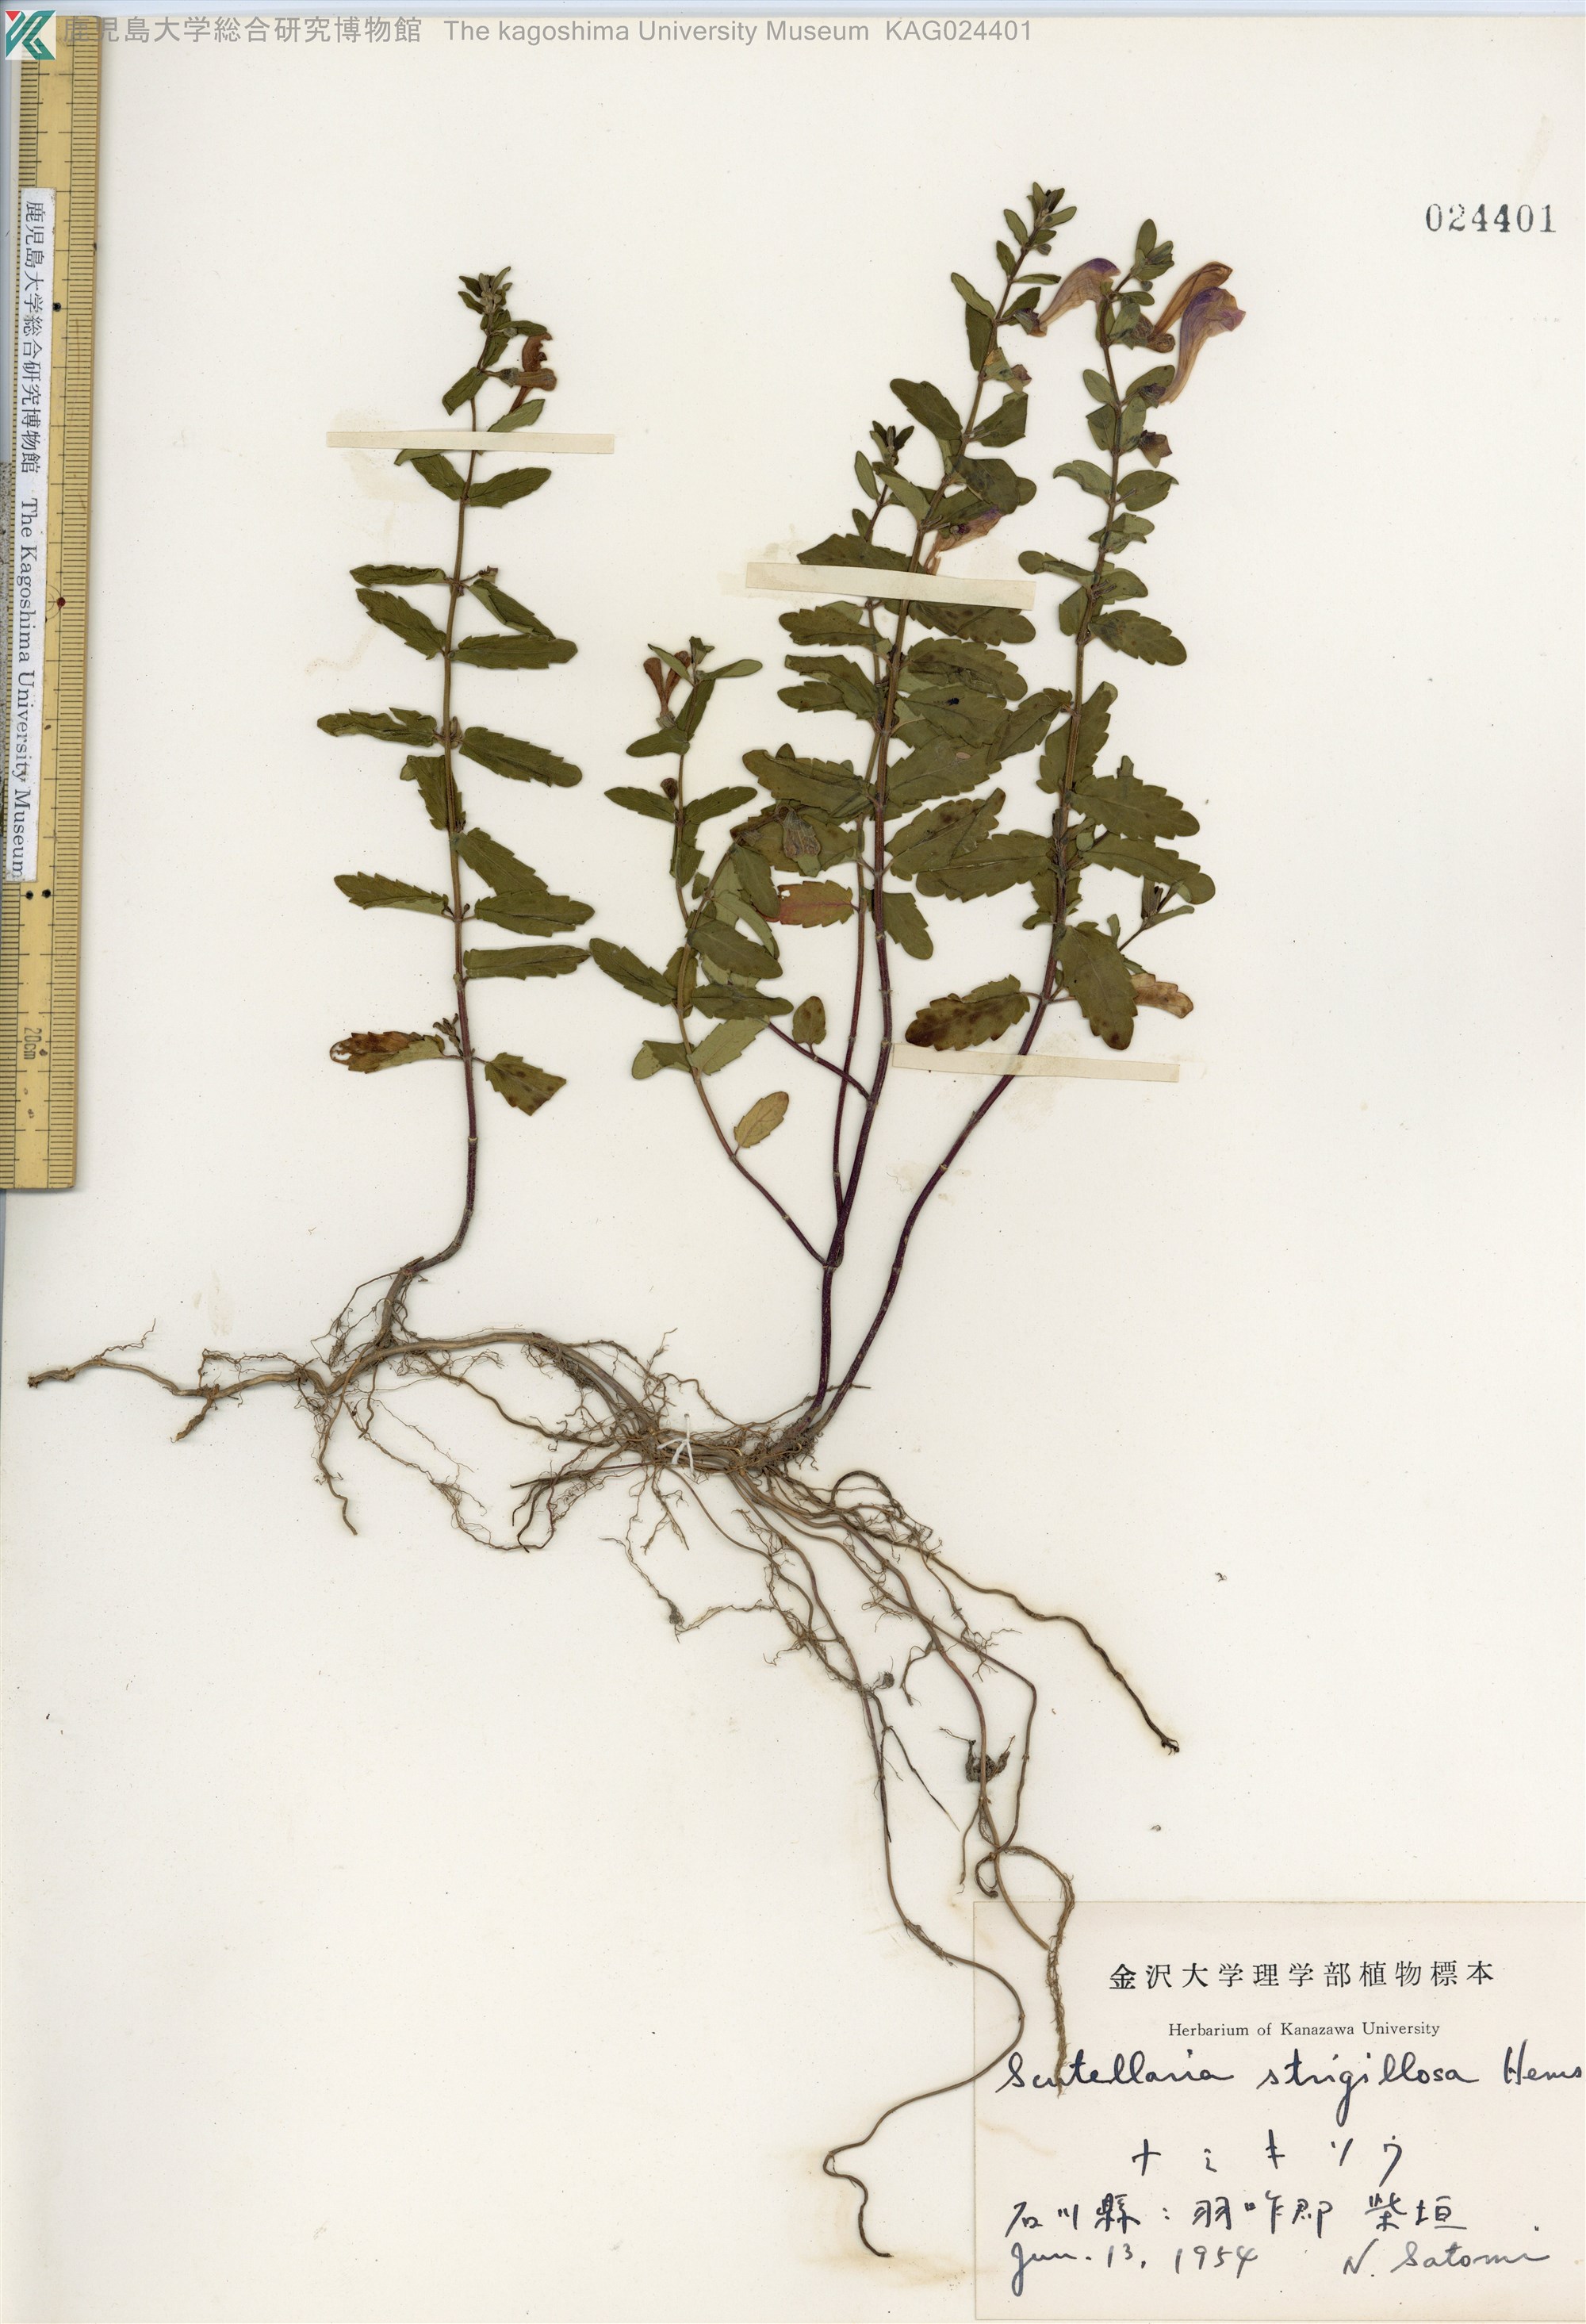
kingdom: Plantae
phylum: Tracheophyta
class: Magnoliopsida
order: Lamiales
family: Lamiaceae
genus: Scutellaria
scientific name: Scutellaria strigillosa
